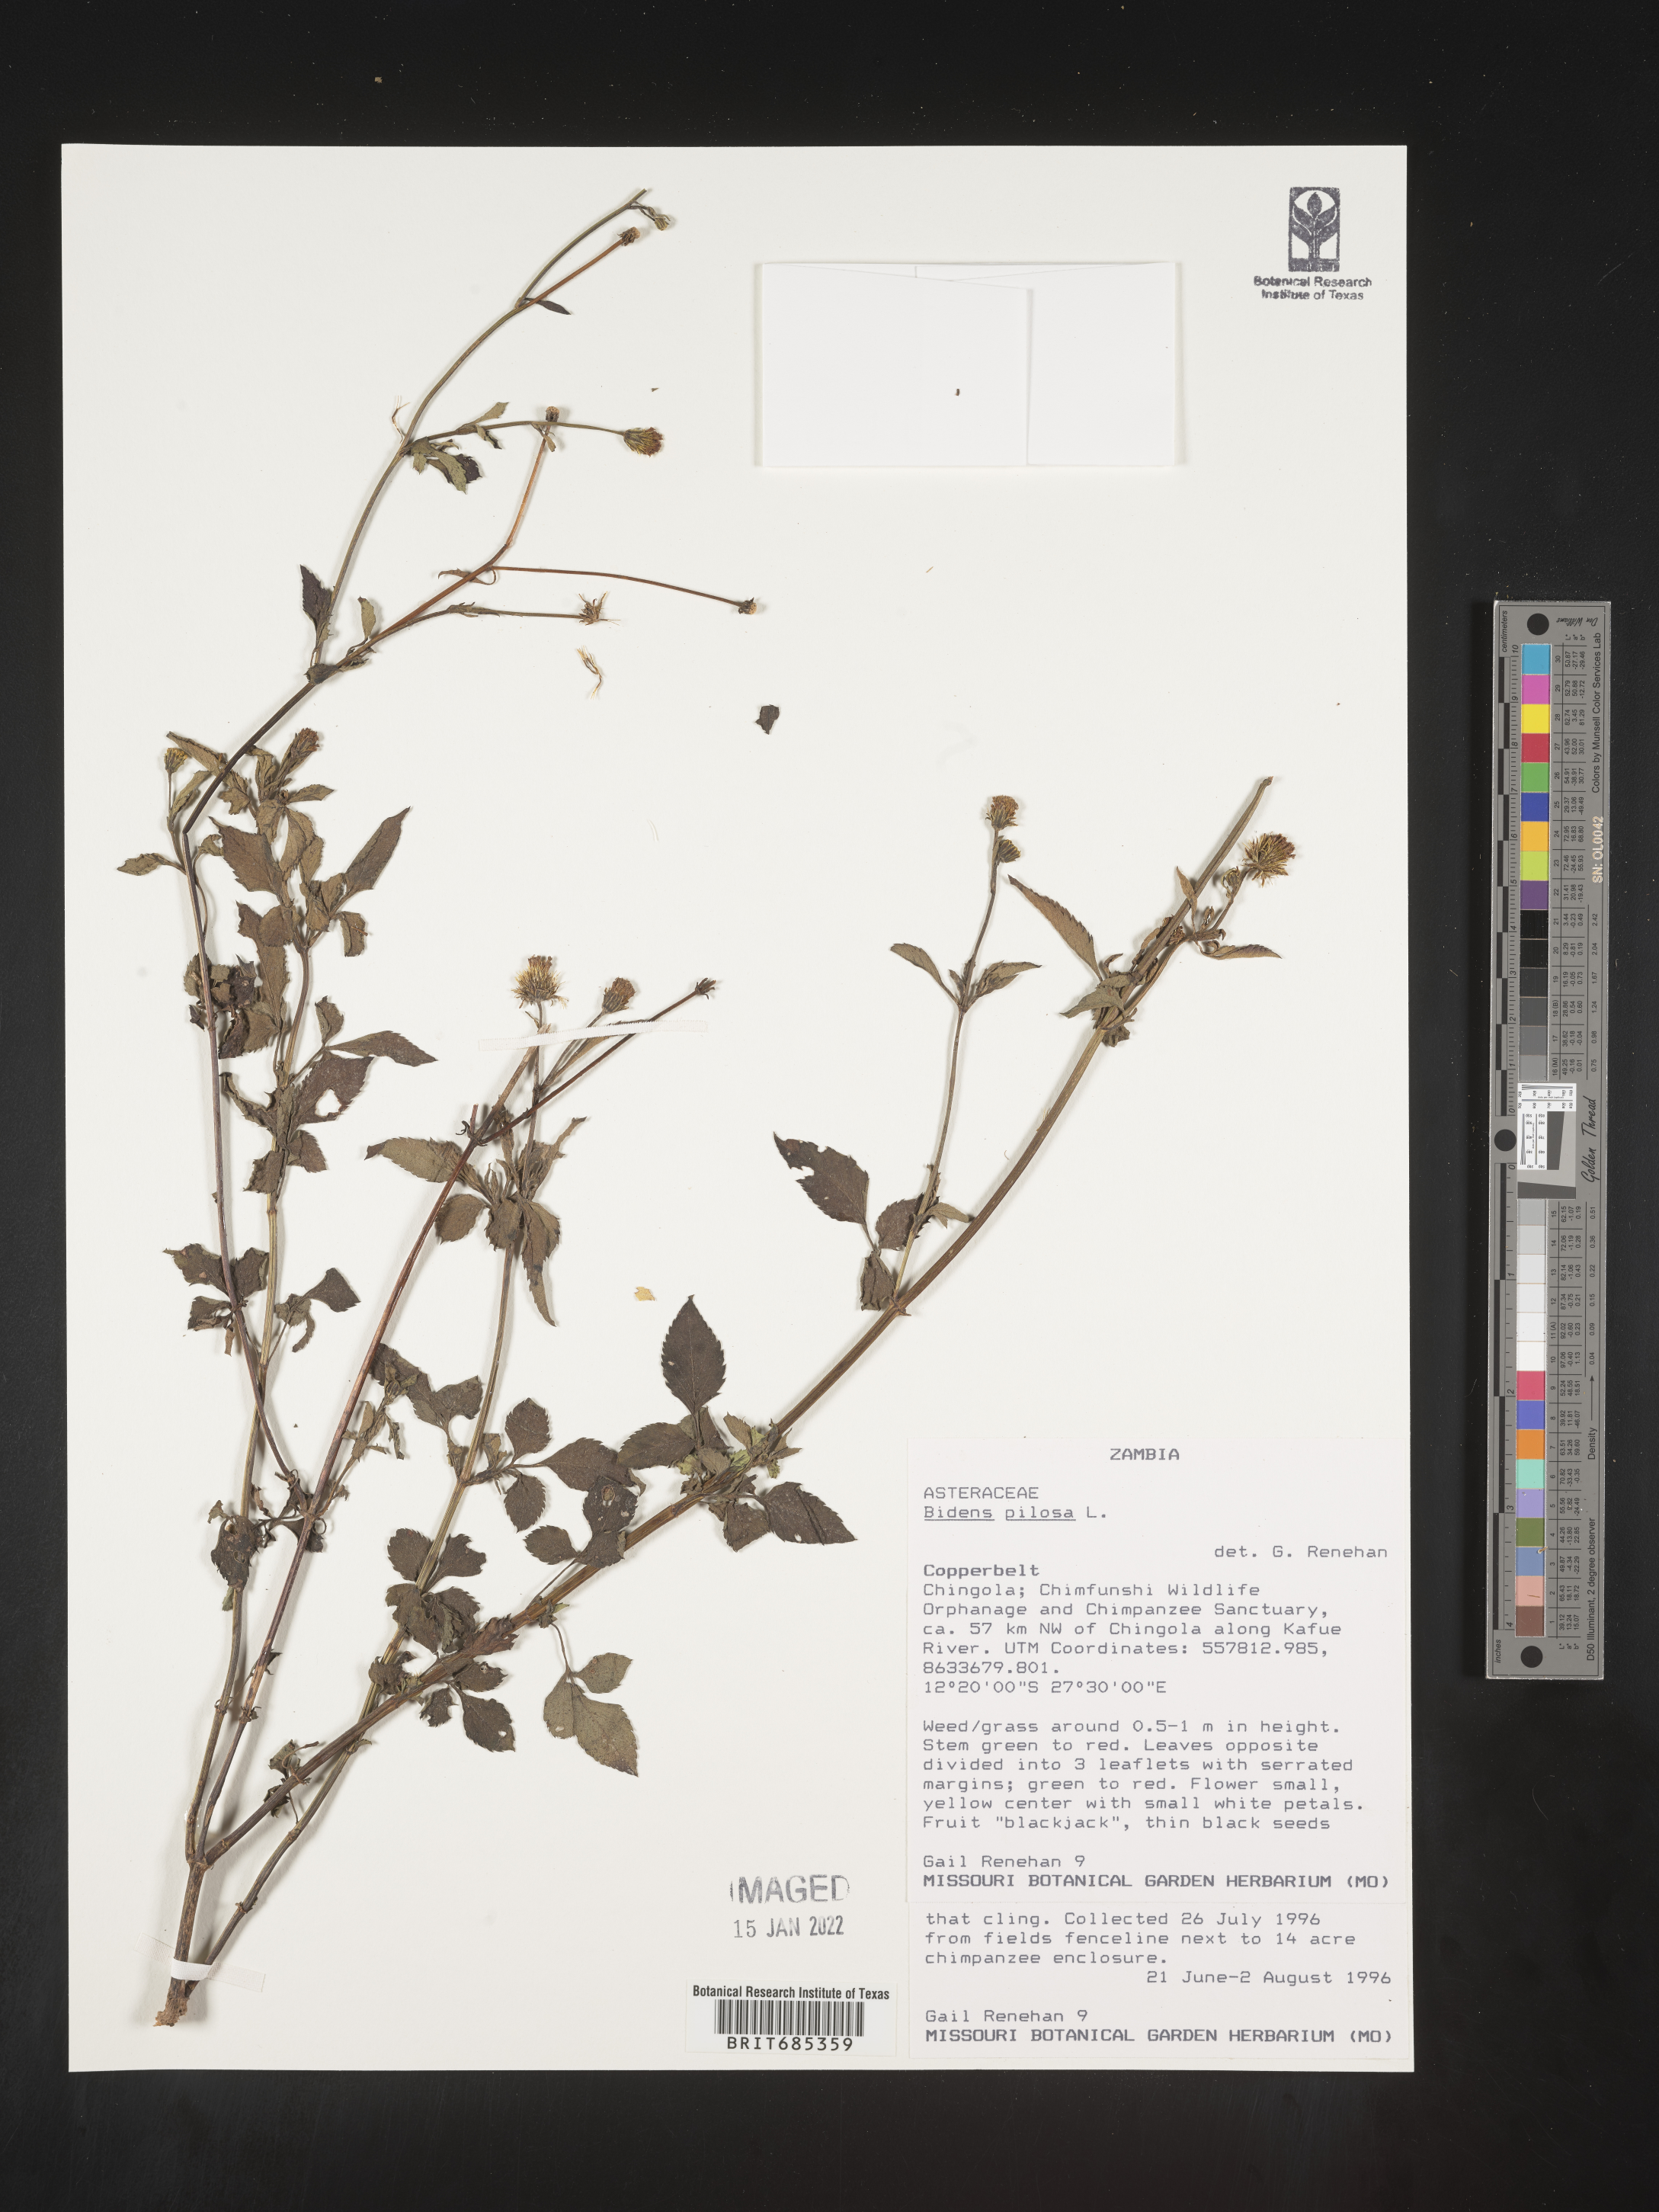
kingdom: Plantae
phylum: Tracheophyta
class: Magnoliopsida
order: Asterales
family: Asteraceae
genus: Bidens
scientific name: Bidens
